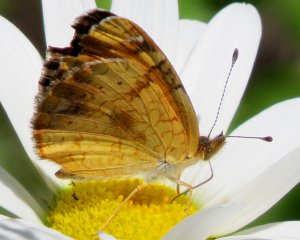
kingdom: Animalia
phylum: Arthropoda
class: Insecta
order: Lepidoptera
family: Nymphalidae
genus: Phyciodes
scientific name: Phyciodes tharos
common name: Northern Crescent
